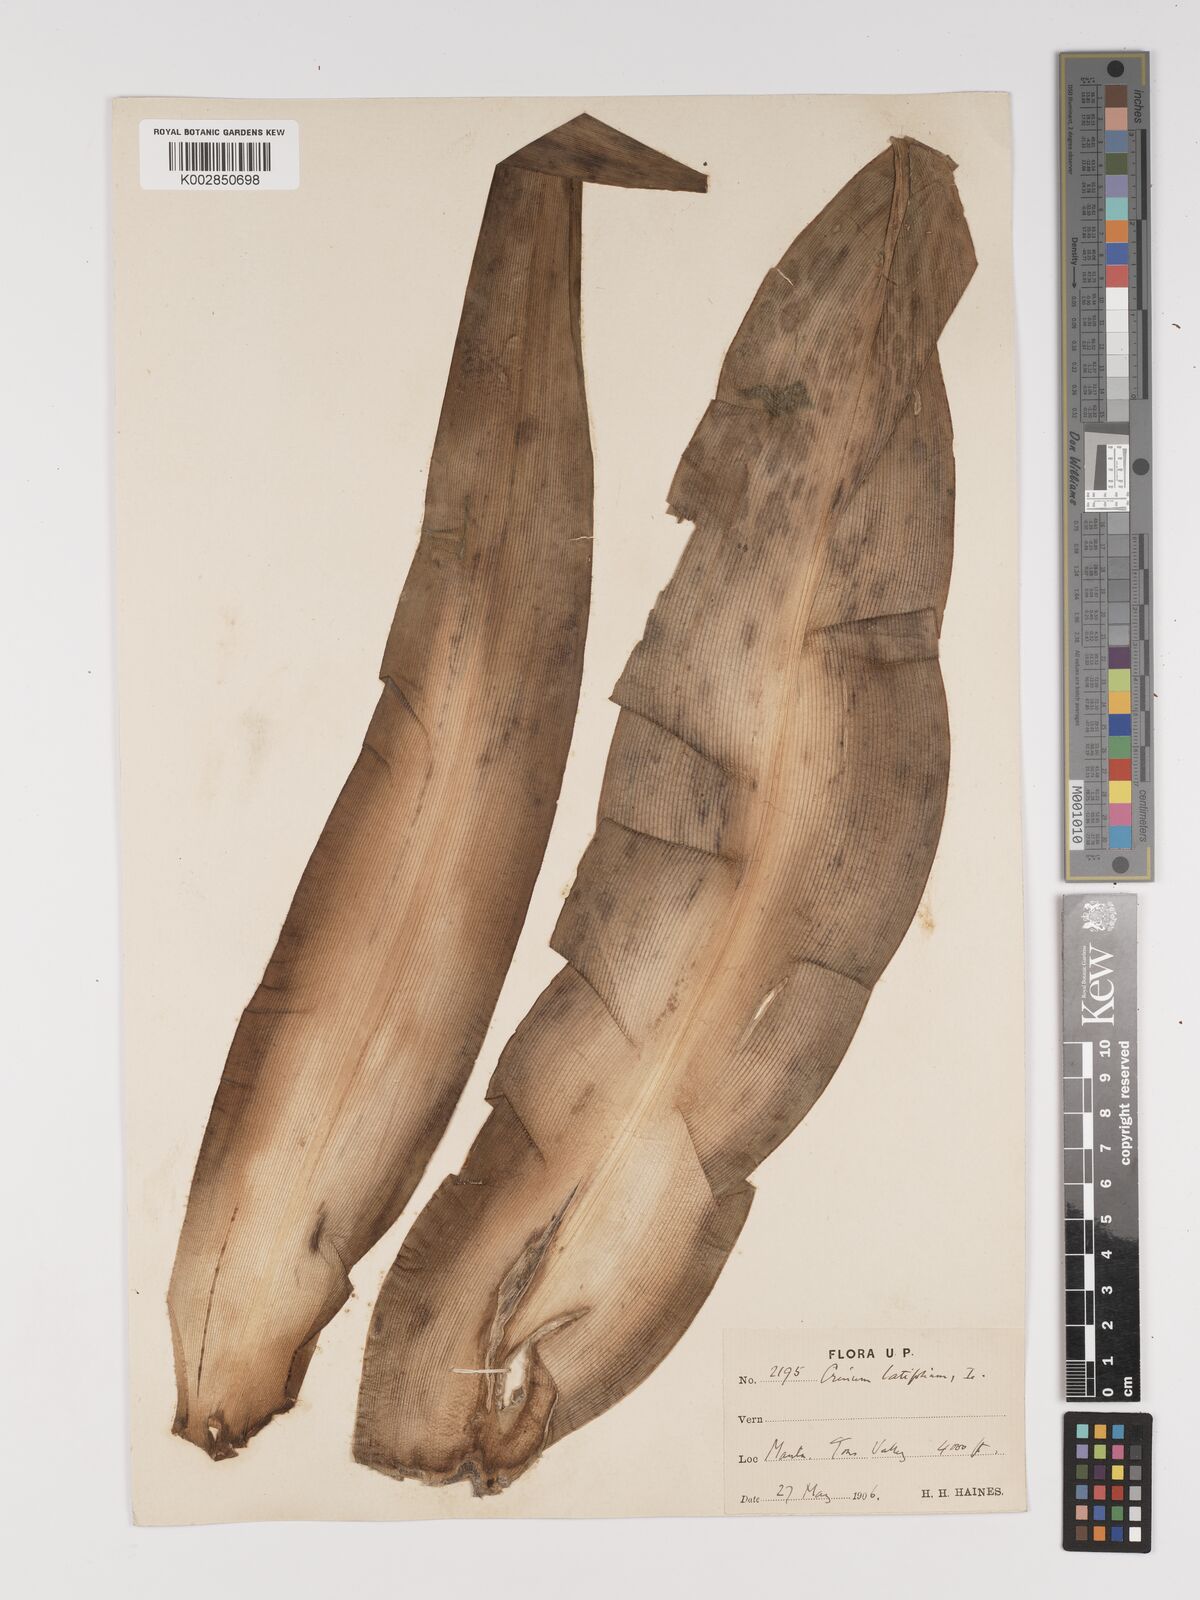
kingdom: Plantae
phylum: Tracheophyta
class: Liliopsida
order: Asparagales
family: Amaryllidaceae
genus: Crinum
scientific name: Crinum latifolium
